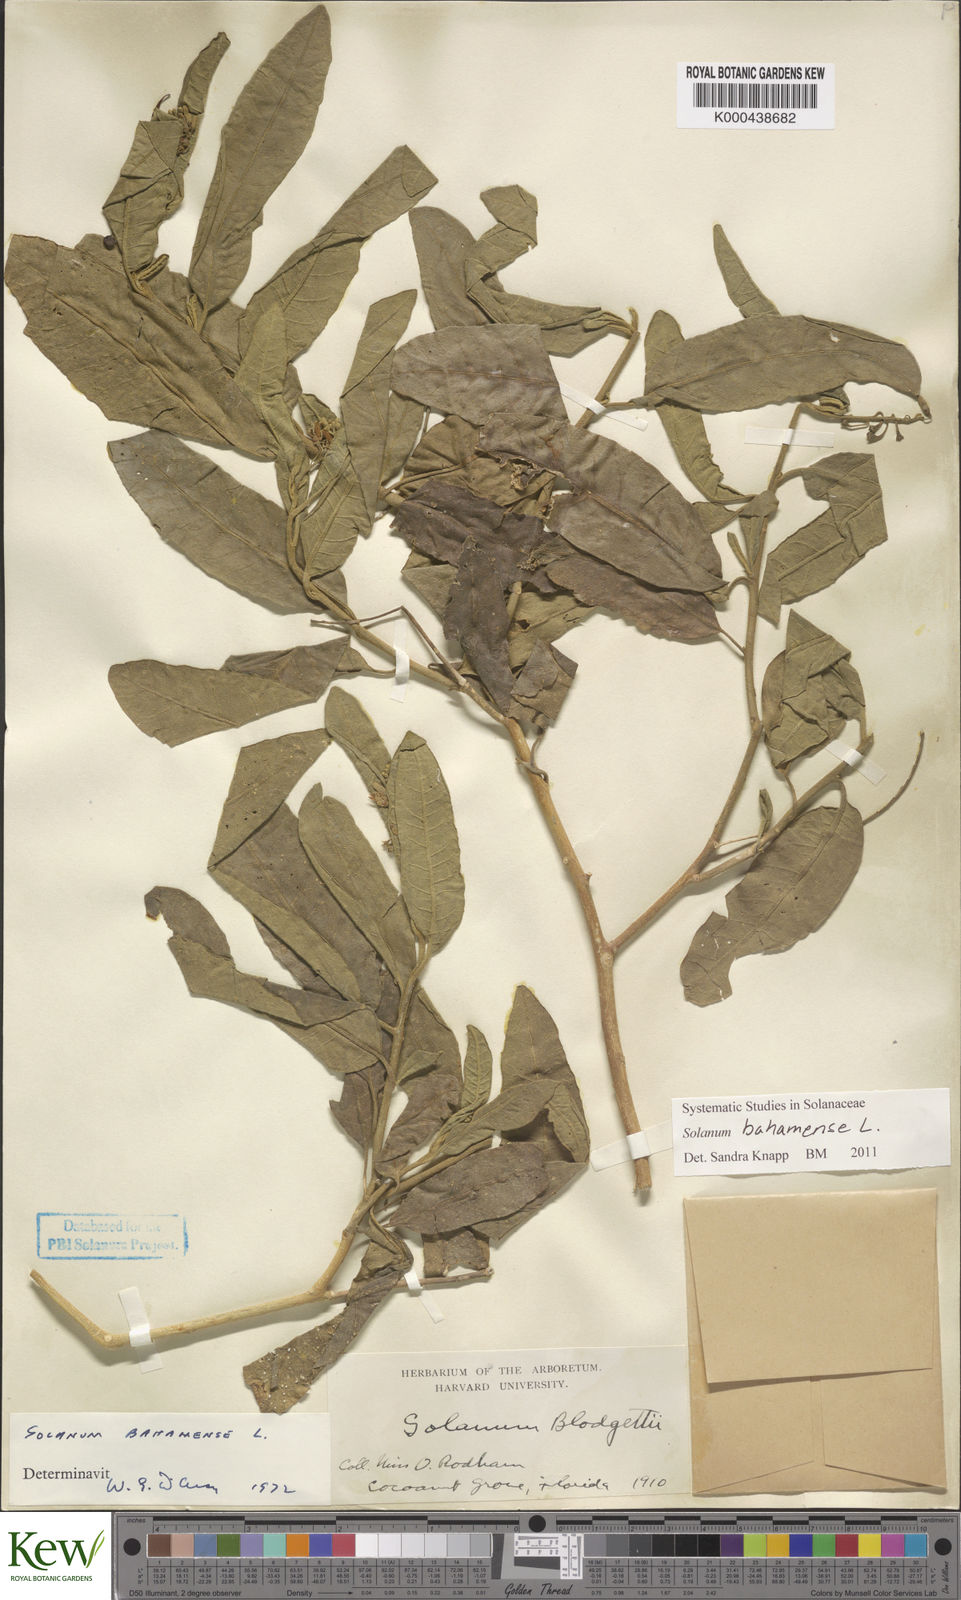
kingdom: Plantae
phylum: Tracheophyta
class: Magnoliopsida
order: Solanales
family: Solanaceae
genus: Solanum
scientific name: Solanum bahamense
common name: Canker-berry
